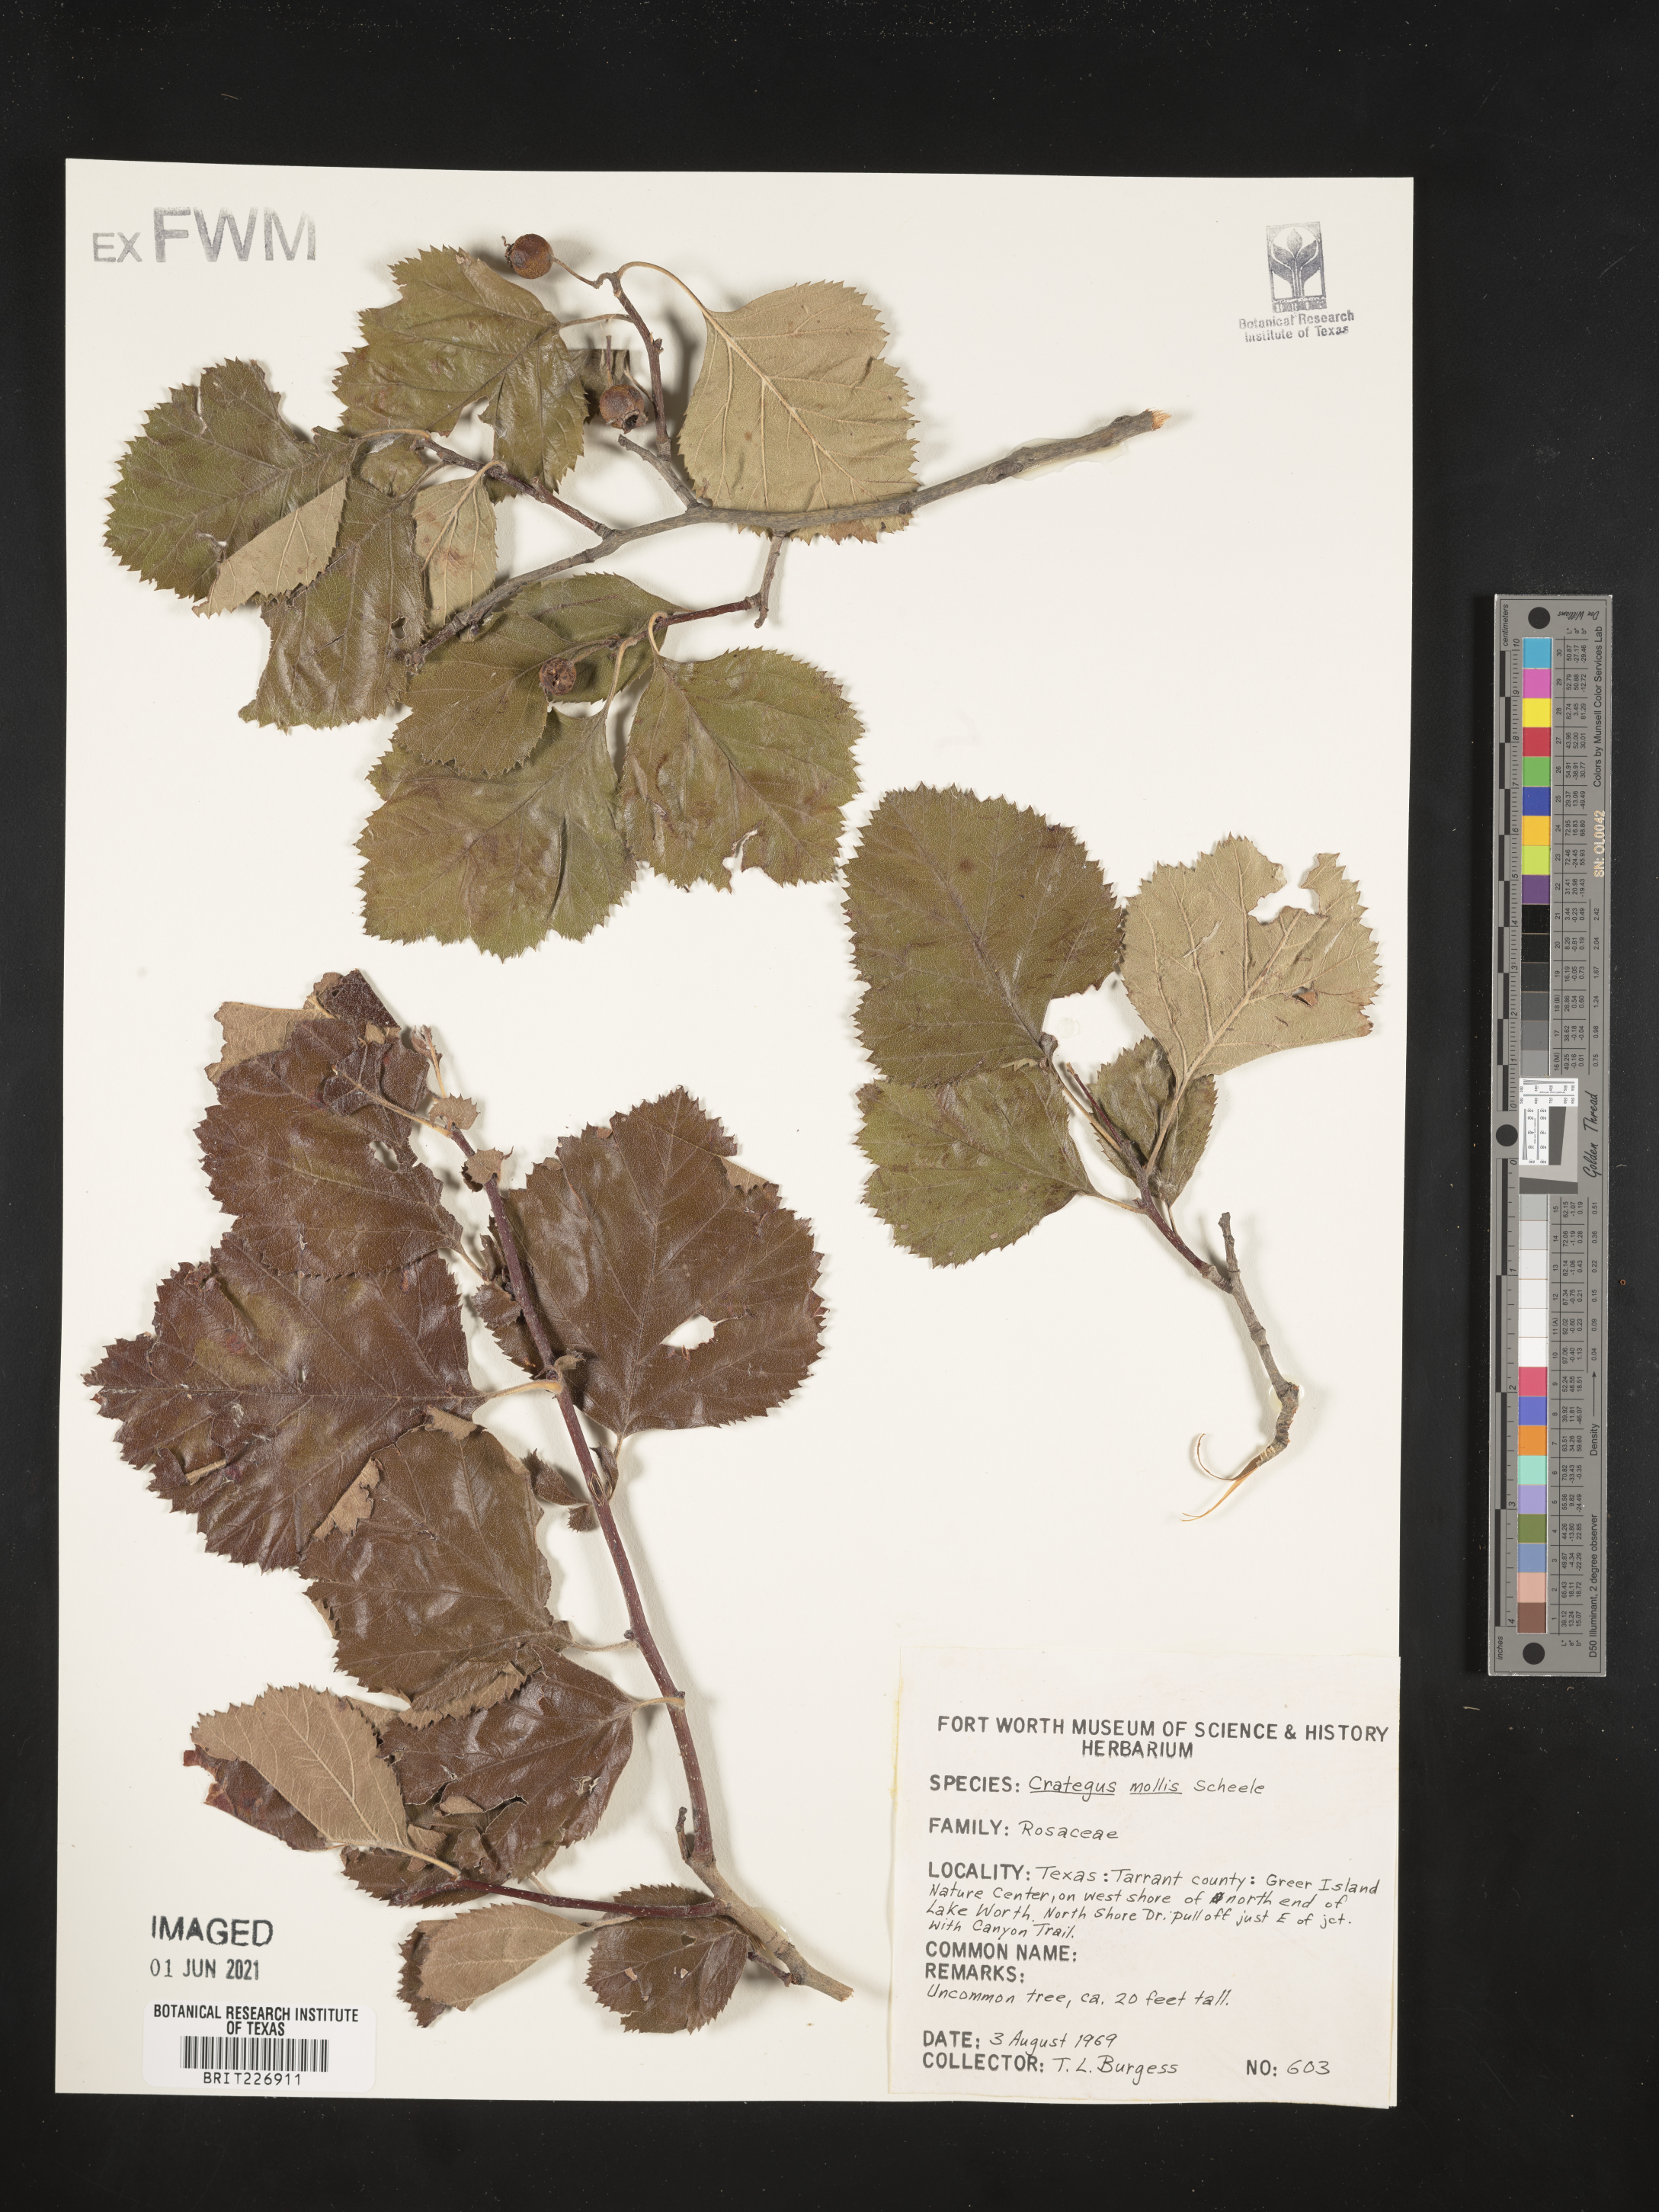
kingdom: Plantae
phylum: Tracheophyta
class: Magnoliopsida
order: Rosales
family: Rosaceae
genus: Crataegus
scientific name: Crataegus mollis
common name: Downy hawthorn
